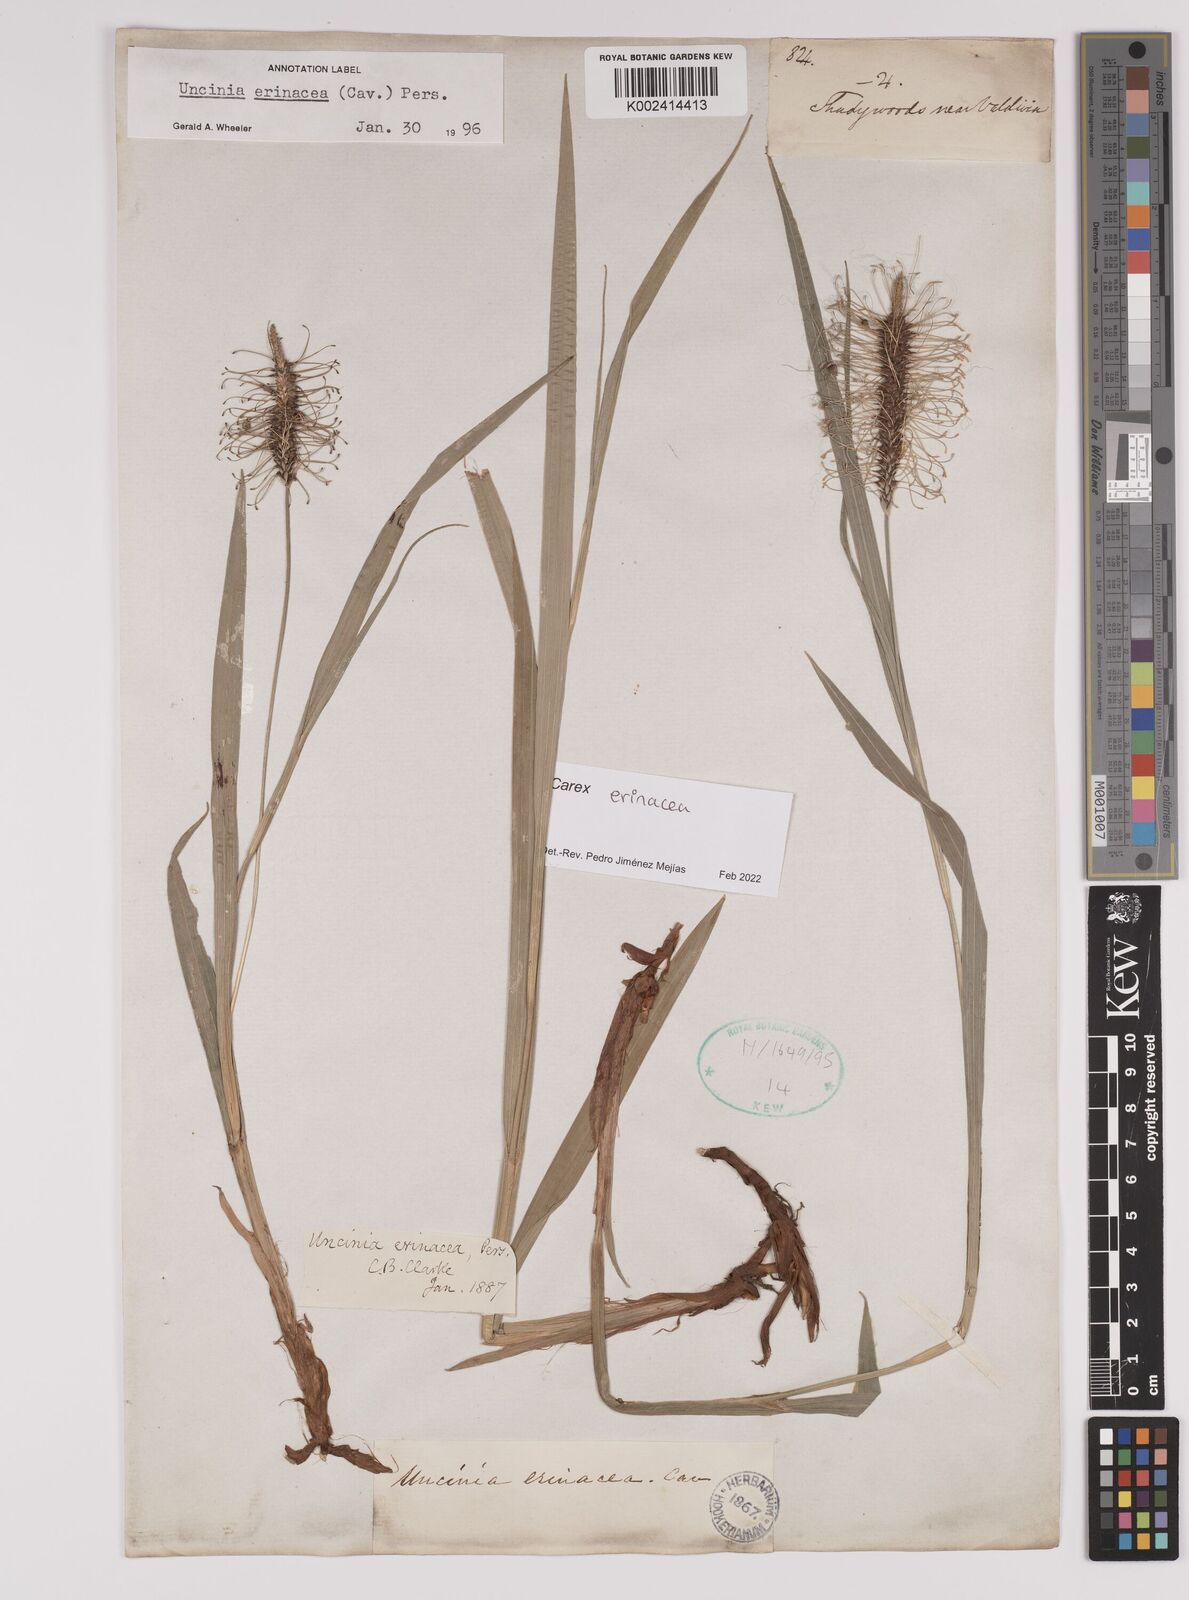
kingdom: Plantae
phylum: Tracheophyta
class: Liliopsida
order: Poales
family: Cyperaceae
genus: Carex
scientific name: Carex erinacea
